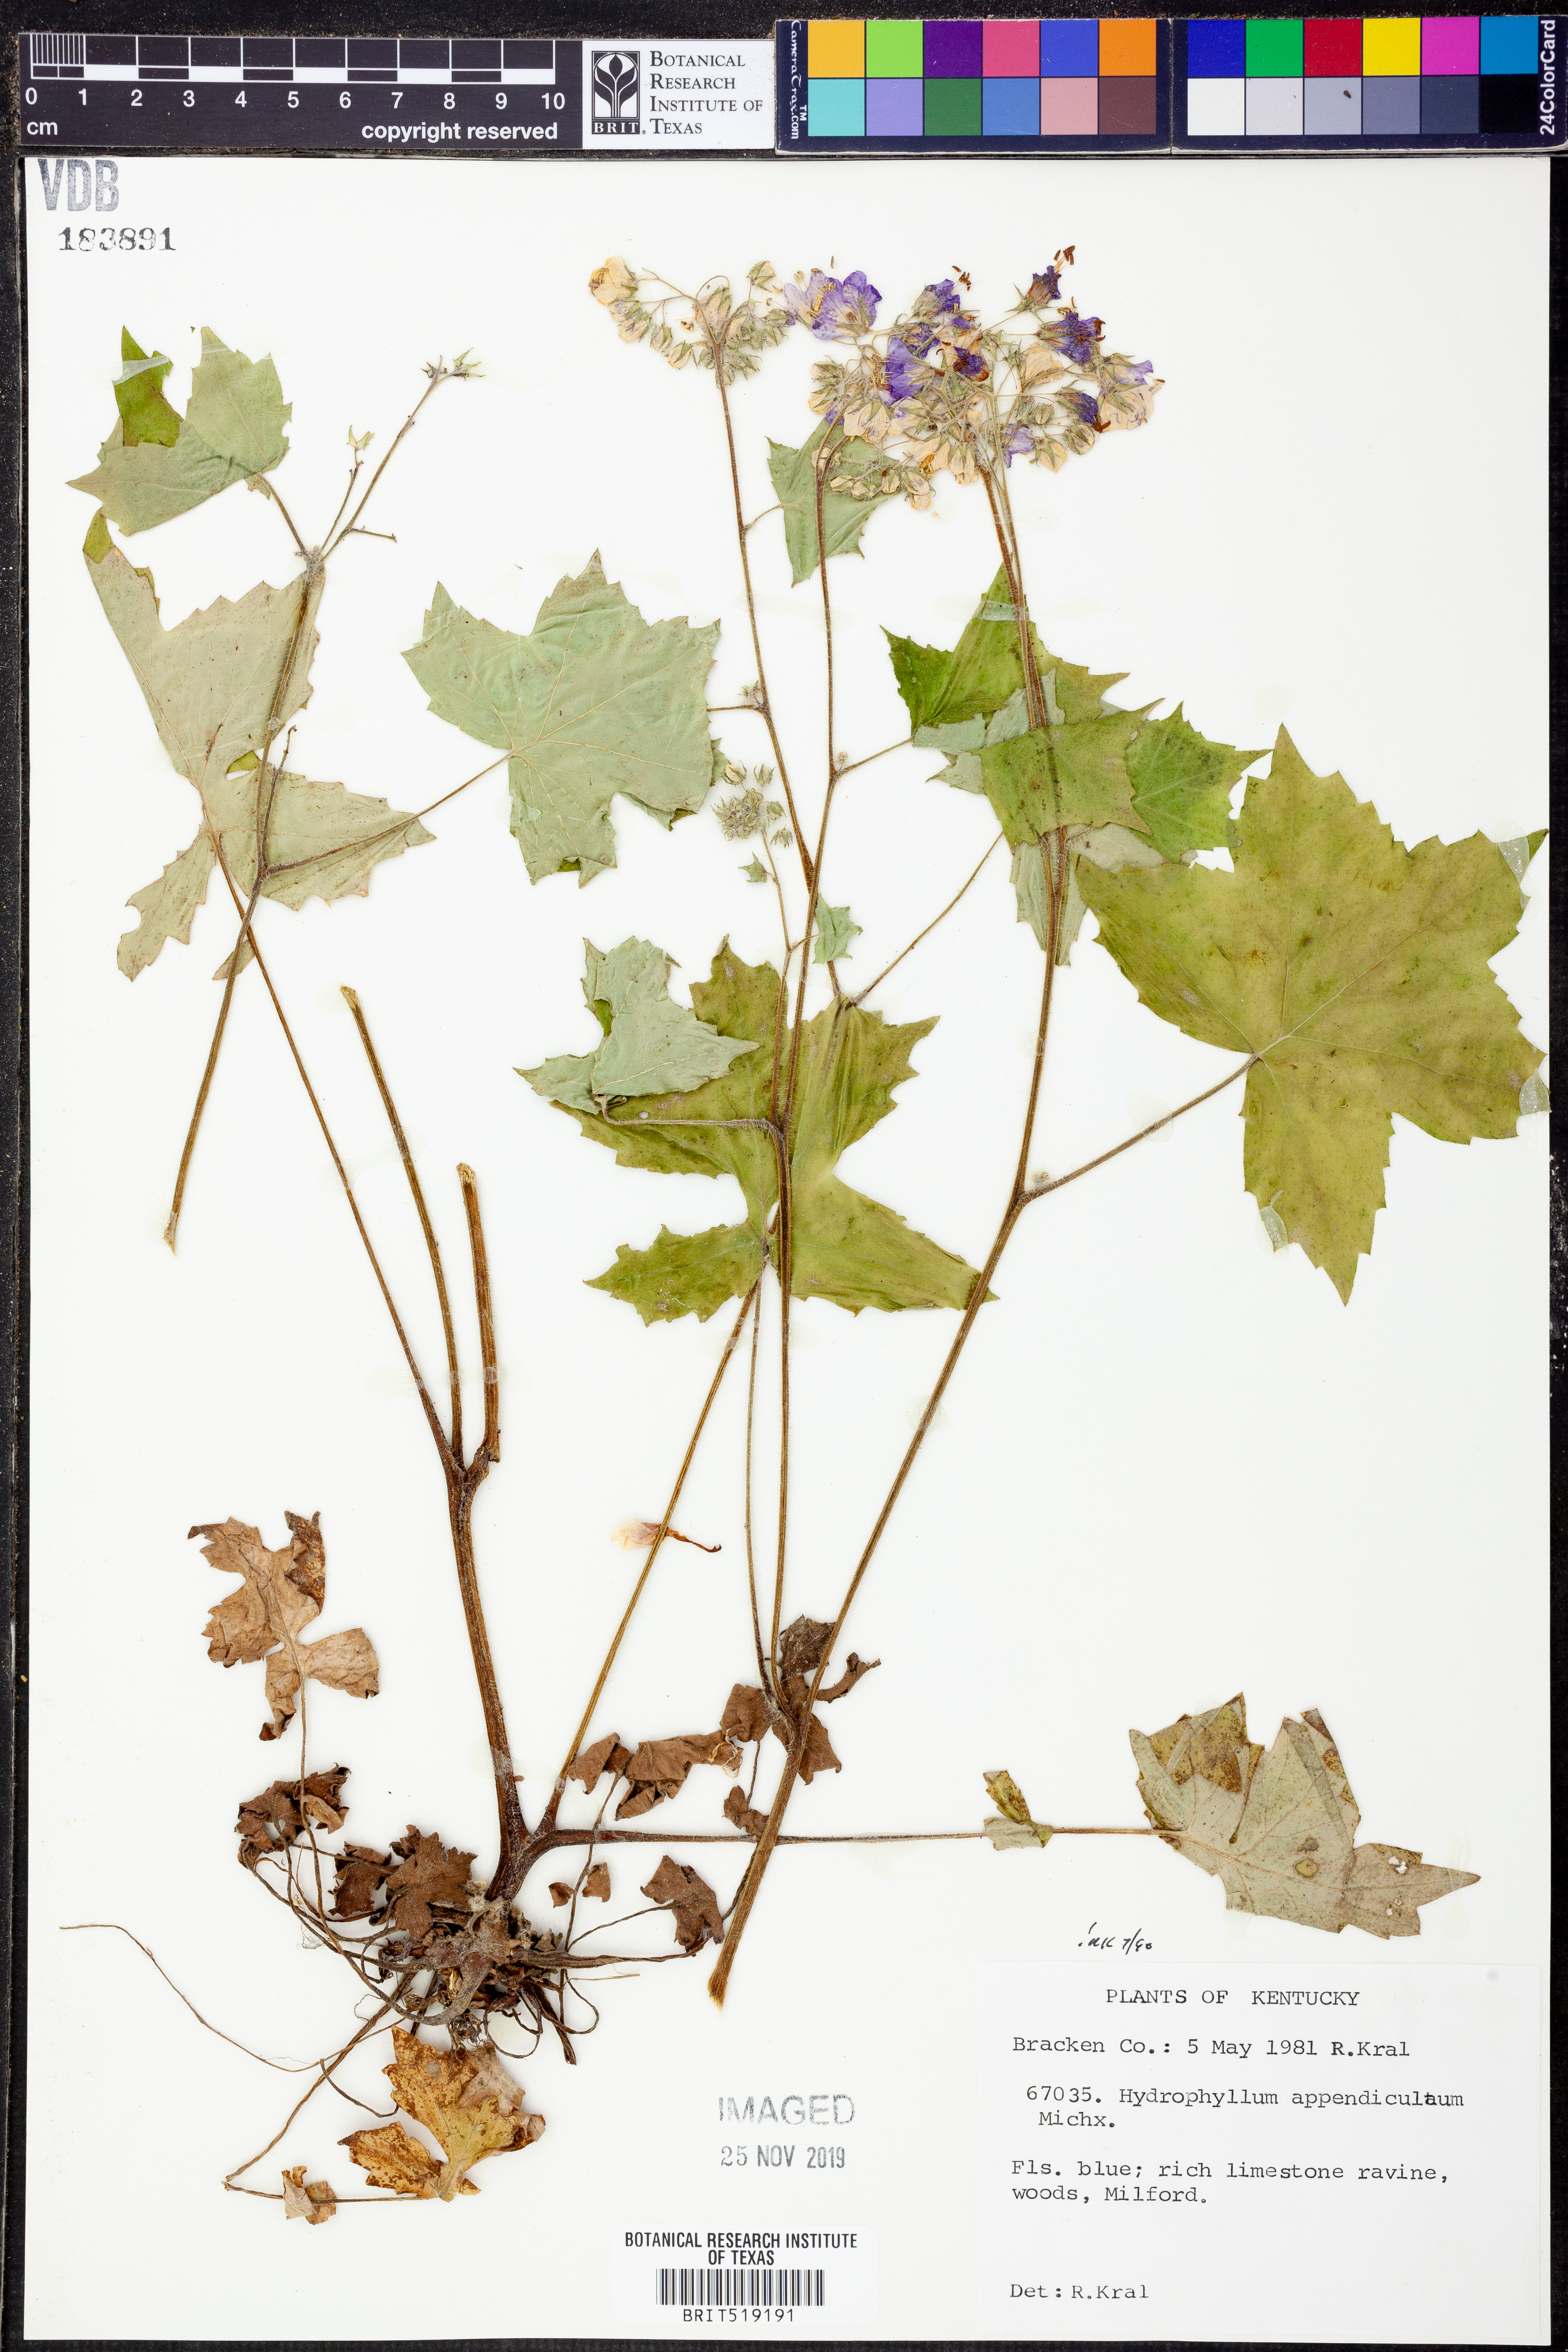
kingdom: Plantae
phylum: Tracheophyta
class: Magnoliopsida
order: Boraginales
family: Hydrophyllaceae
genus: Hydrophyllum
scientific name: Hydrophyllum appendiculatum
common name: Appendaged waterleaf
